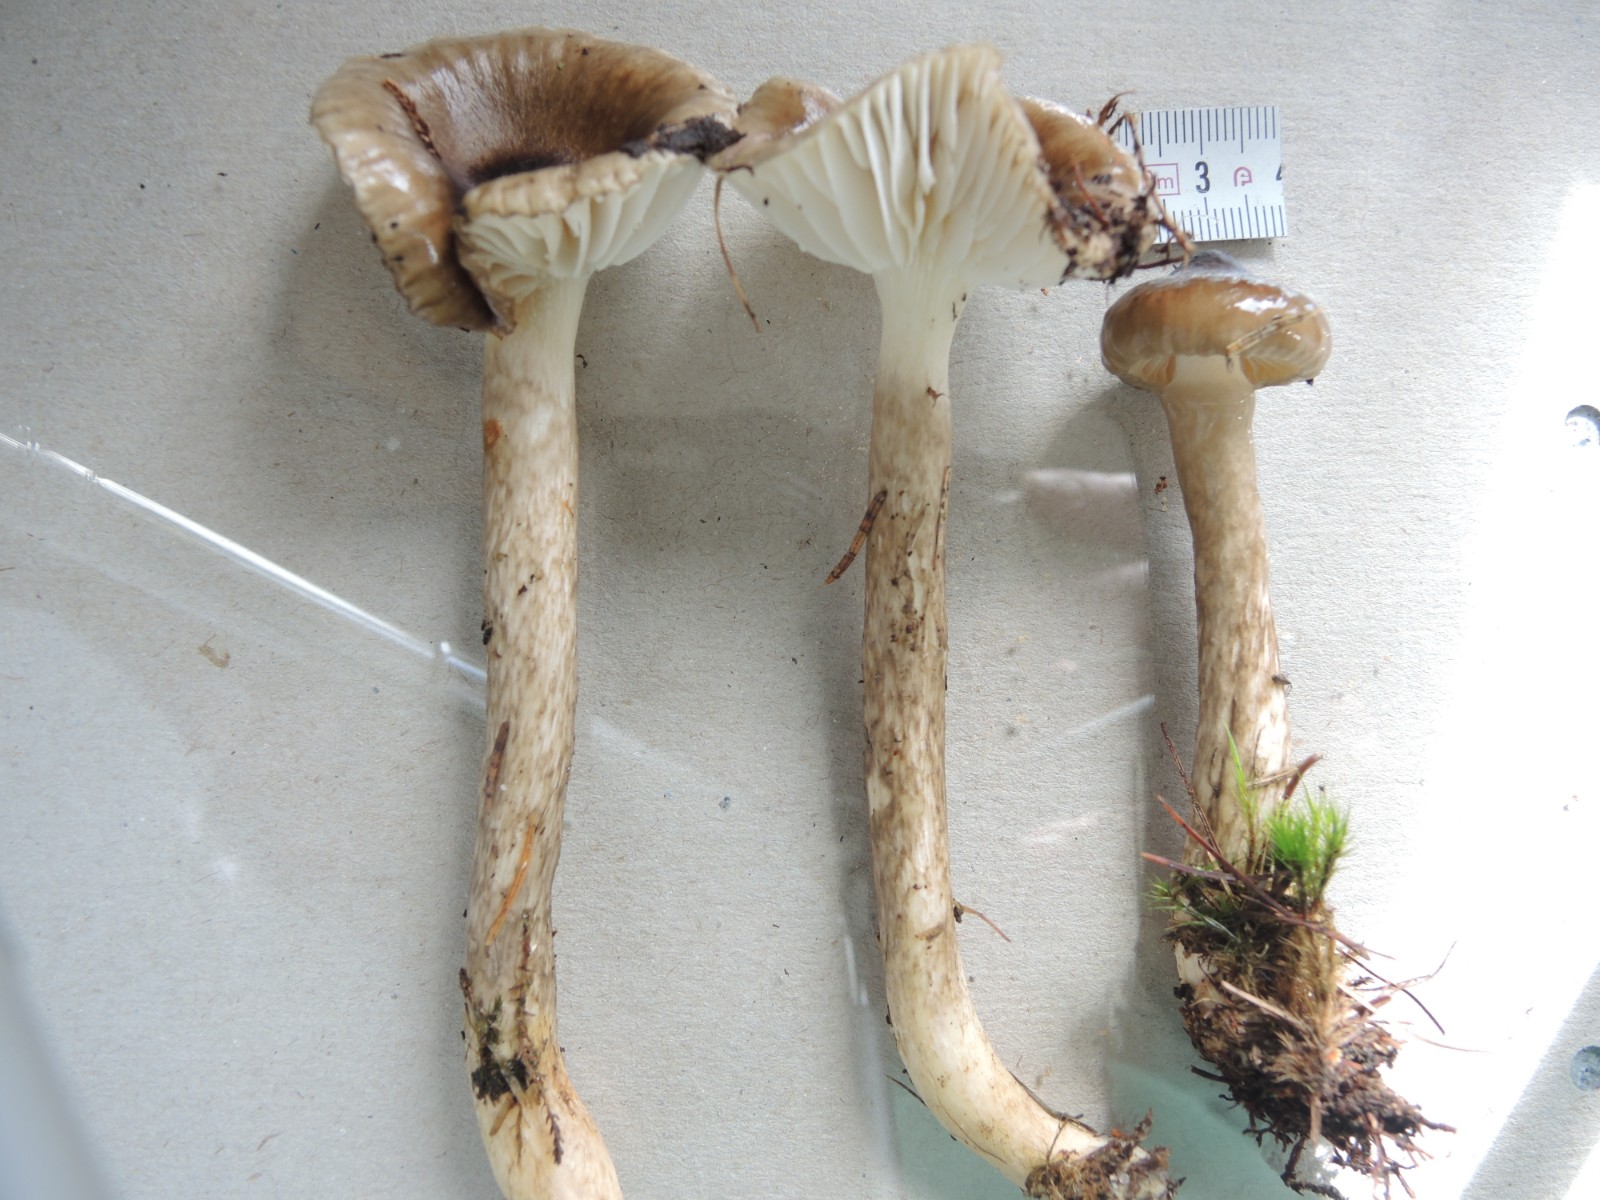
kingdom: Fungi
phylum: Basidiomycota
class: Agaricomycetes
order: Agaricales
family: Hygrophoraceae
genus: Hygrophorus
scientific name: Hygrophorus olivaceoalbus
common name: hvidbrun sneglehat
